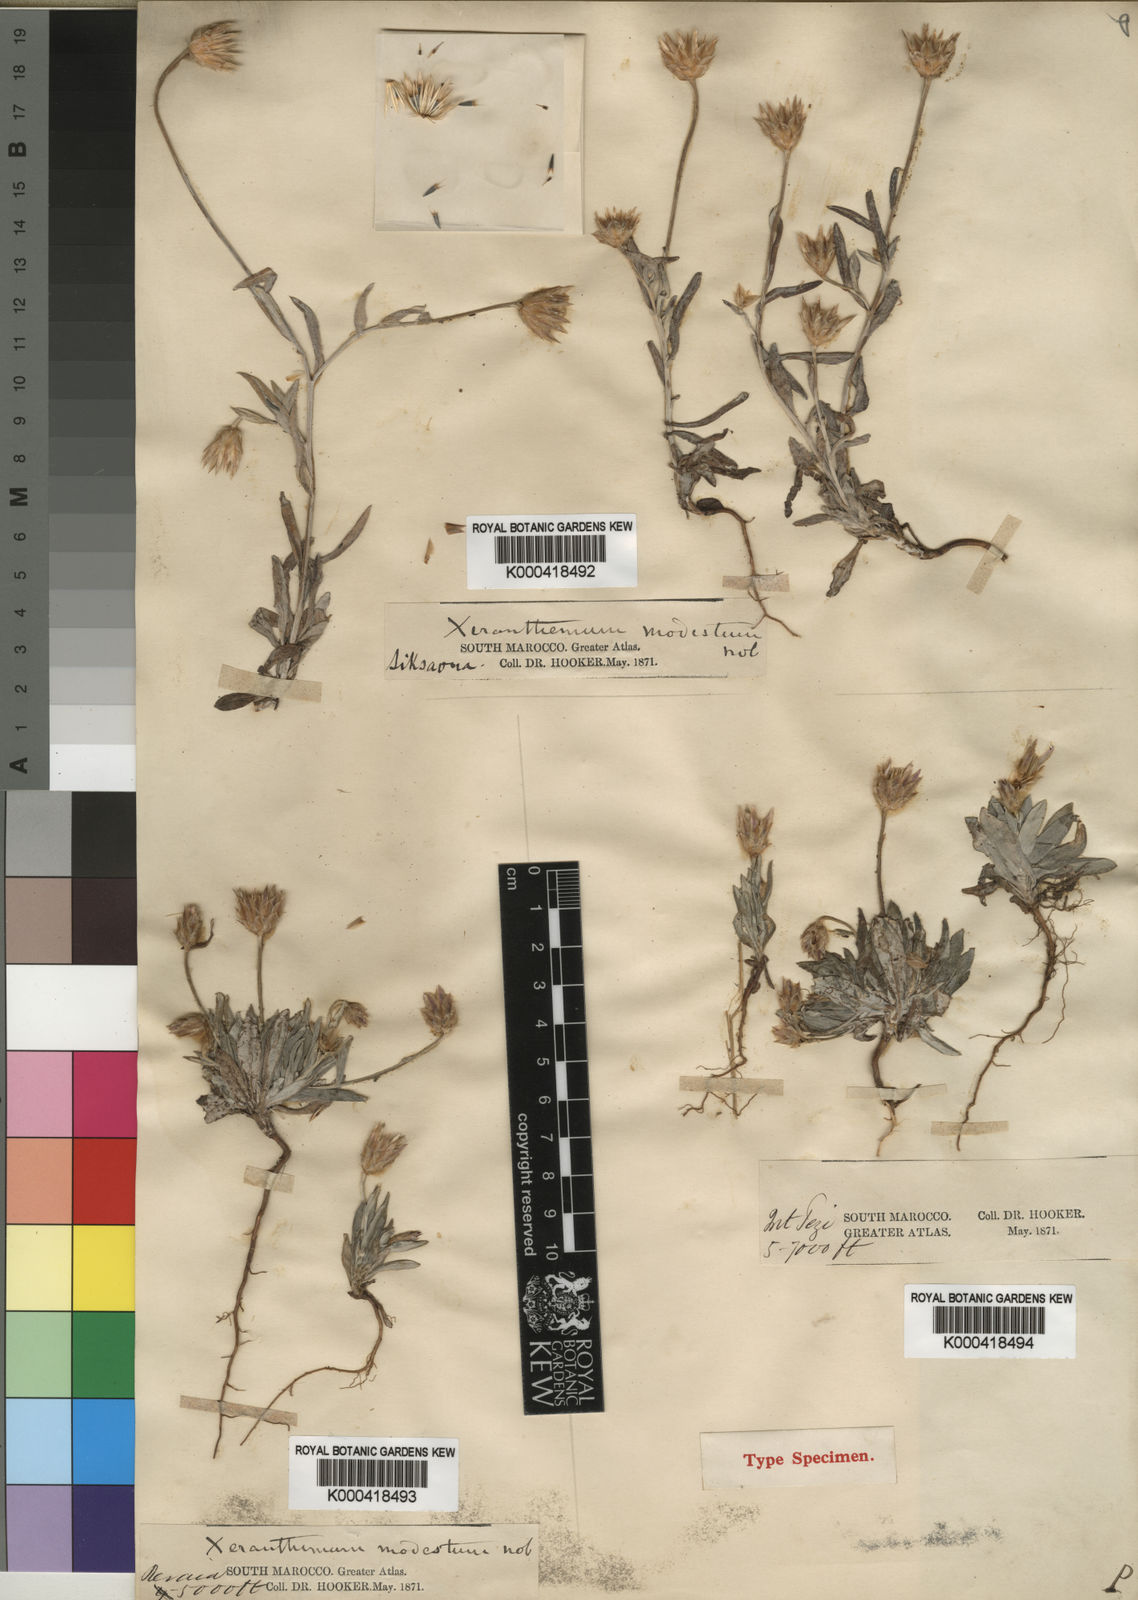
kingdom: Plantae
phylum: Tracheophyta
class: Magnoliopsida
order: Asterales
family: Asteraceae
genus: Xeranthemum
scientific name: Xeranthemum inapertum
